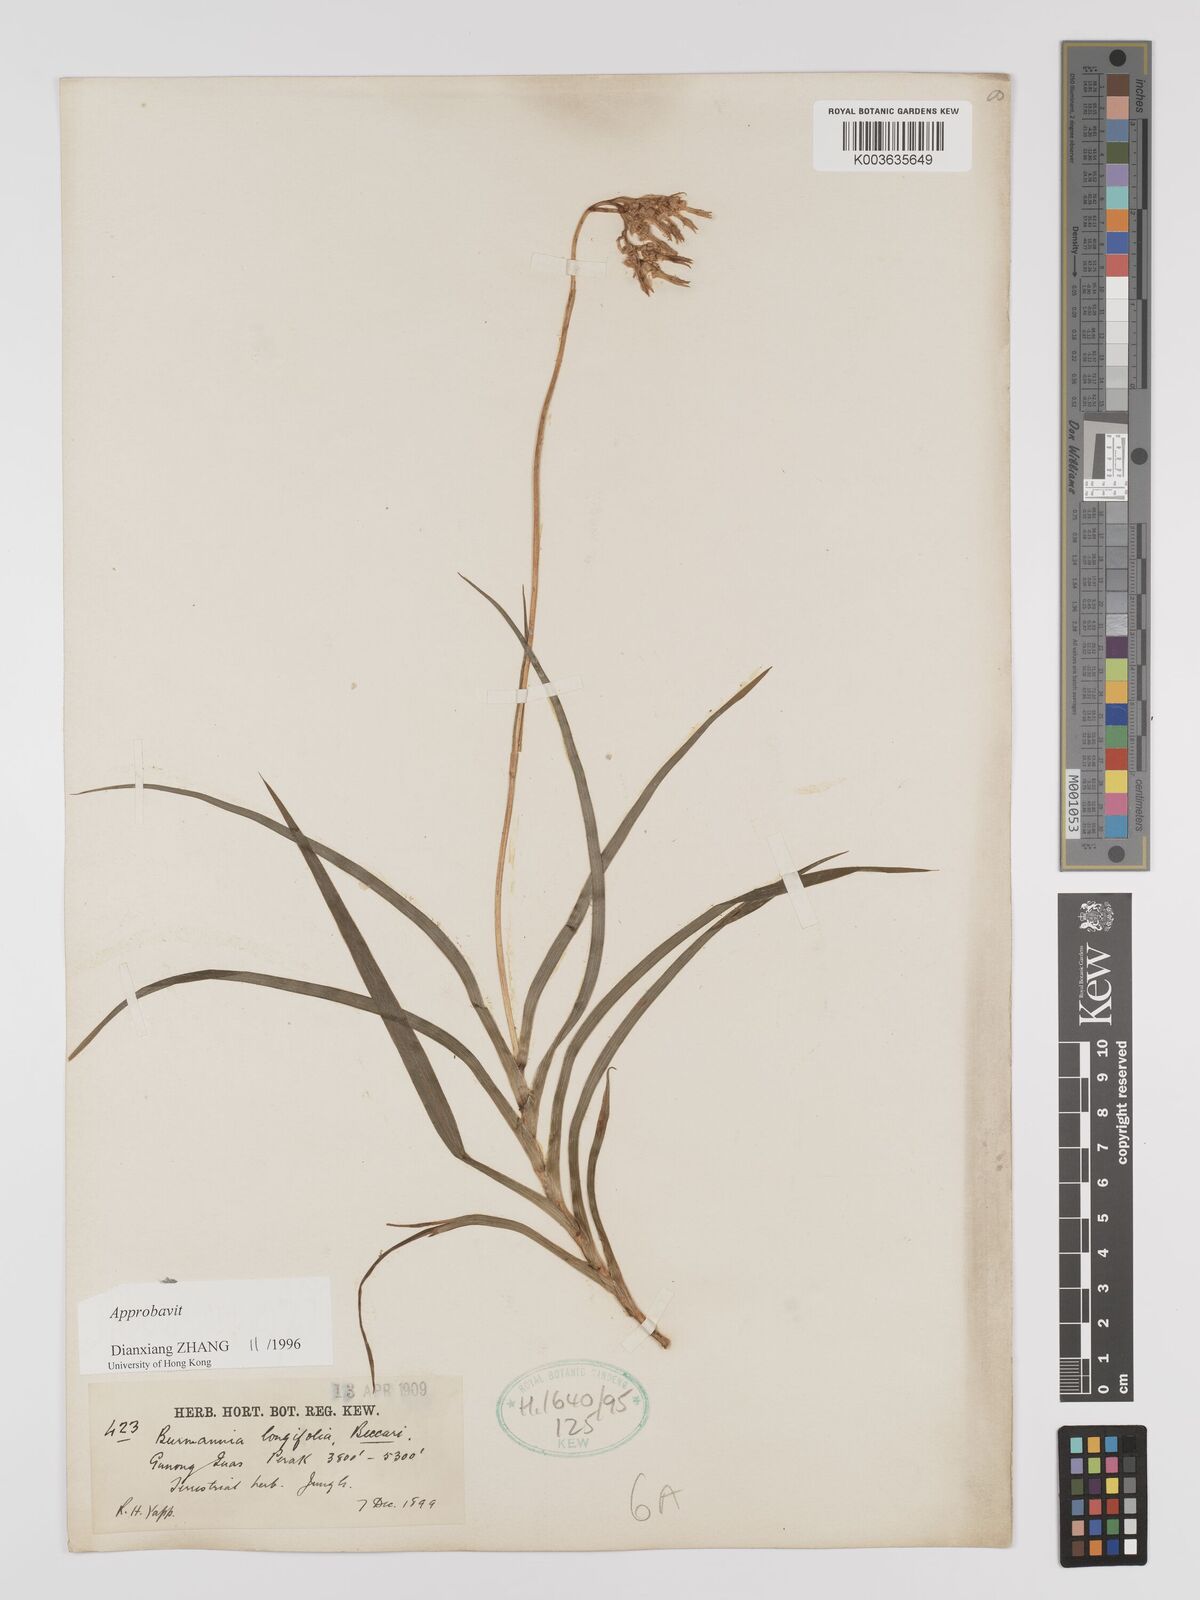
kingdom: Plantae
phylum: Tracheophyta
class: Liliopsida
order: Dioscoreales
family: Burmanniaceae
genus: Burmannia
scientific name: Burmannia longifolia
